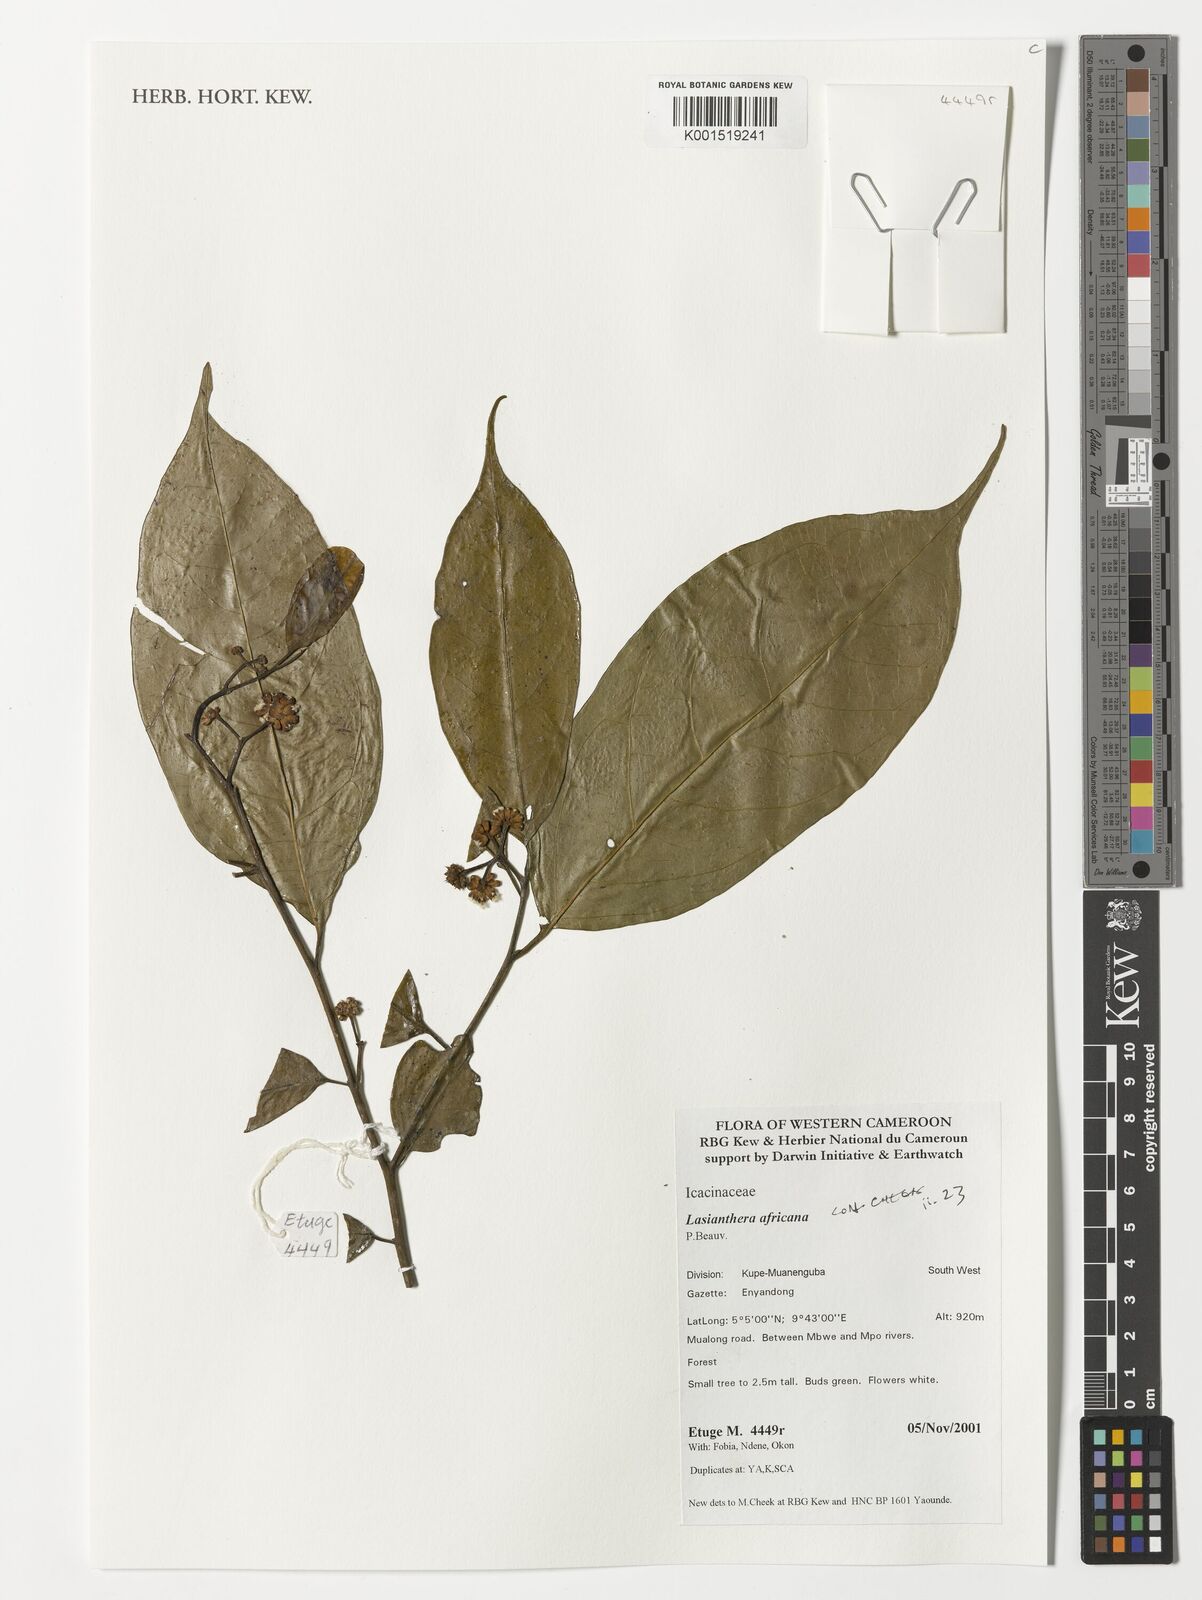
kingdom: Plantae
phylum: Tracheophyta
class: Magnoliopsida
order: Cardiopteridales
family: Stemonuraceae
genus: Lasianthera
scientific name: Lasianthera africana
